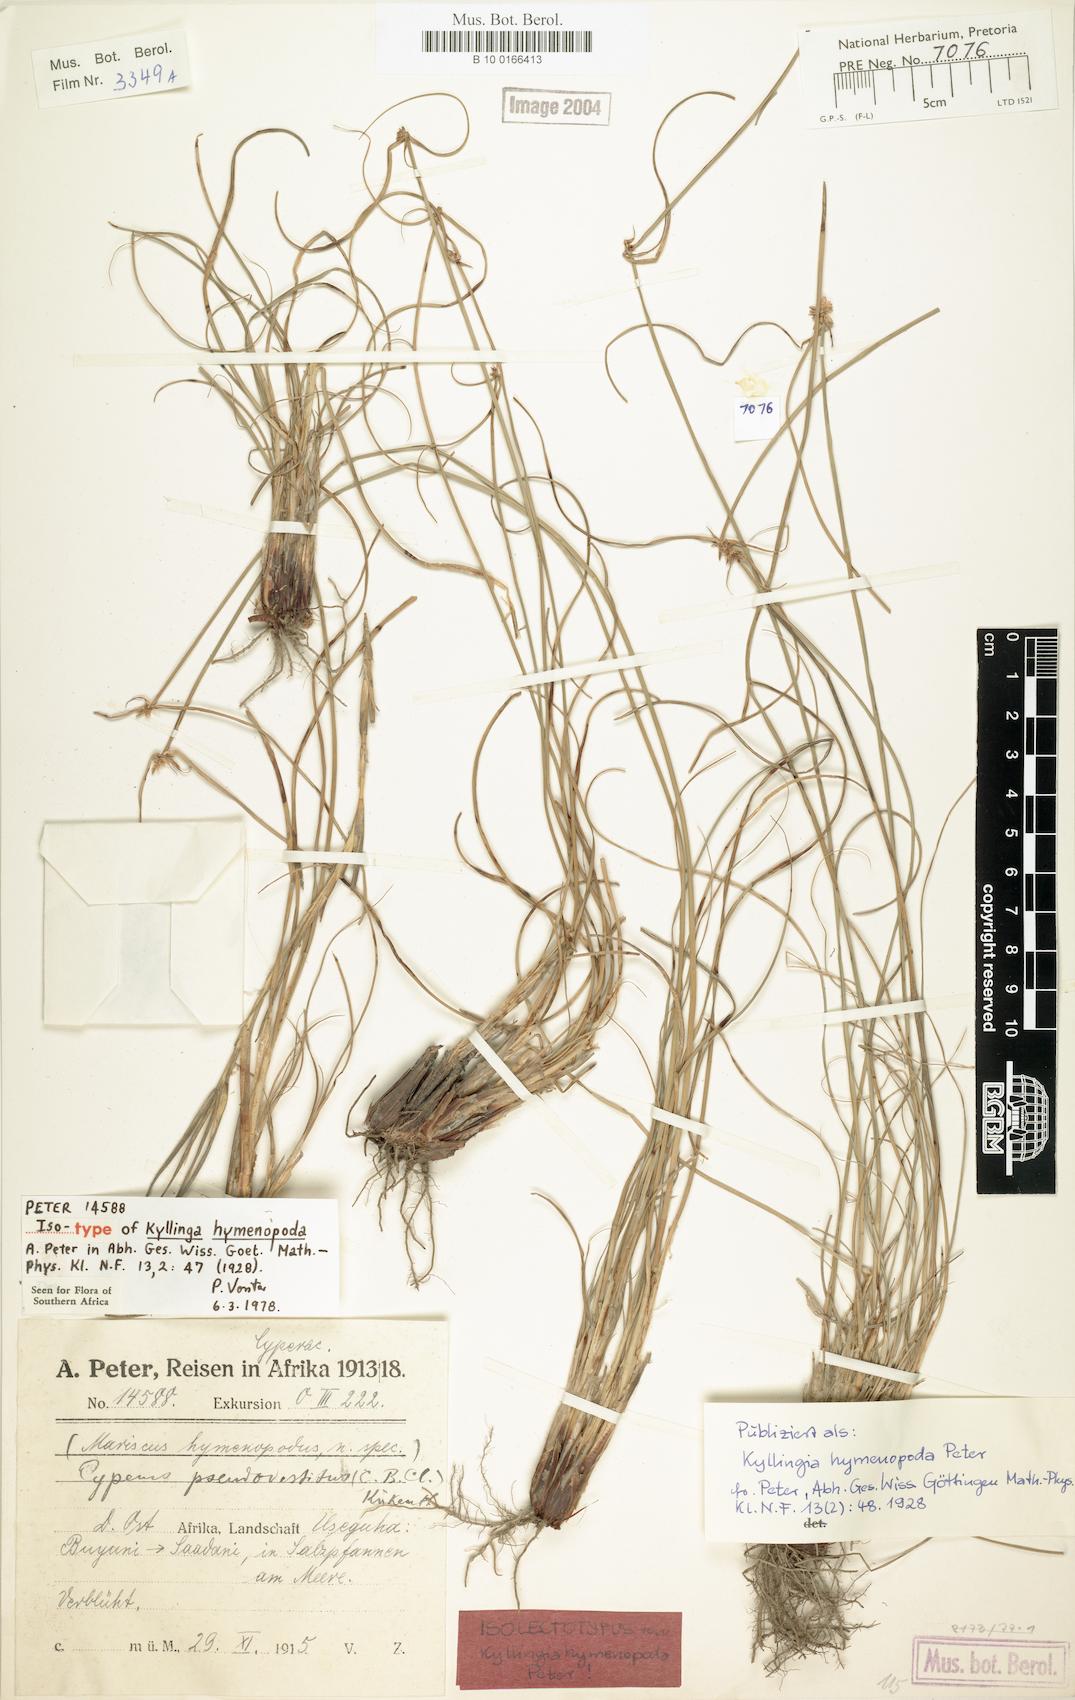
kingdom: Plantae
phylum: Tracheophyta
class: Liliopsida
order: Poales
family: Cyperaceae
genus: Cyperus
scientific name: Cyperus pseudovestitus
